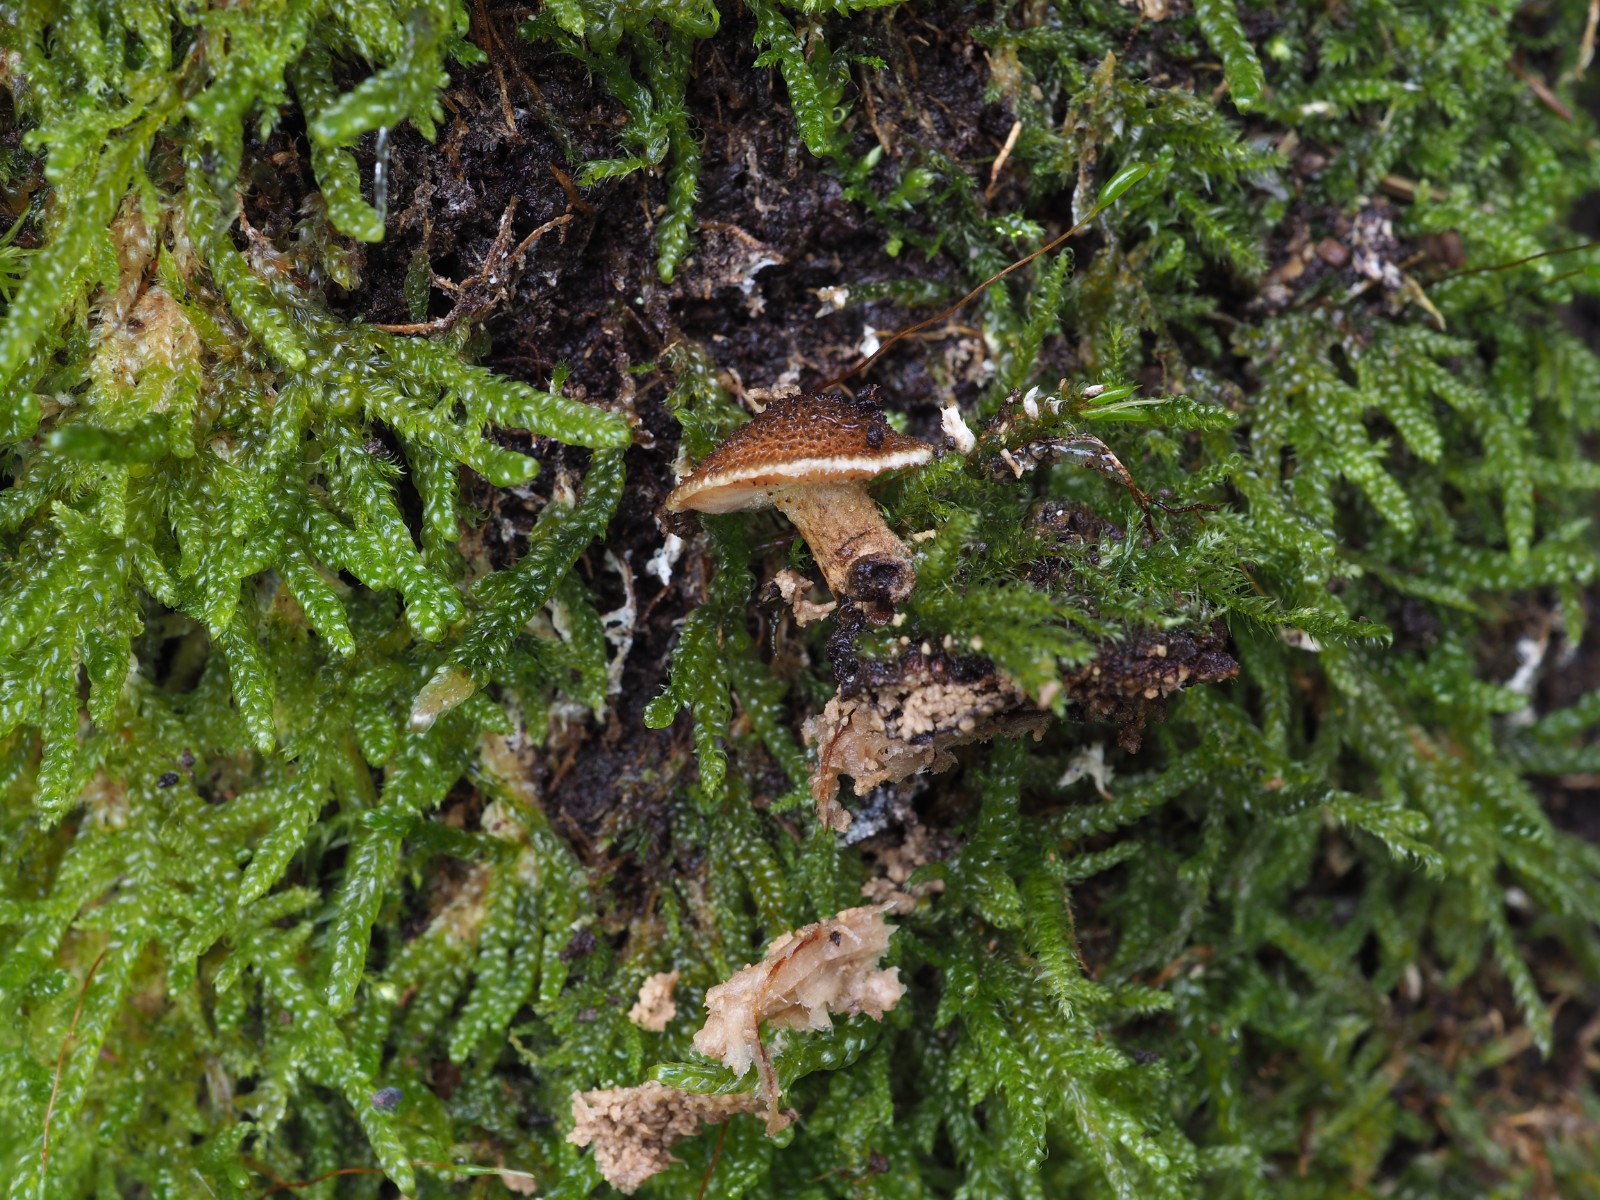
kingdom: Fungi
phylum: Basidiomycota
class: Agaricomycetes
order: Agaricales
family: Tubariaceae
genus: Flammulaster
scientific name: Flammulaster
